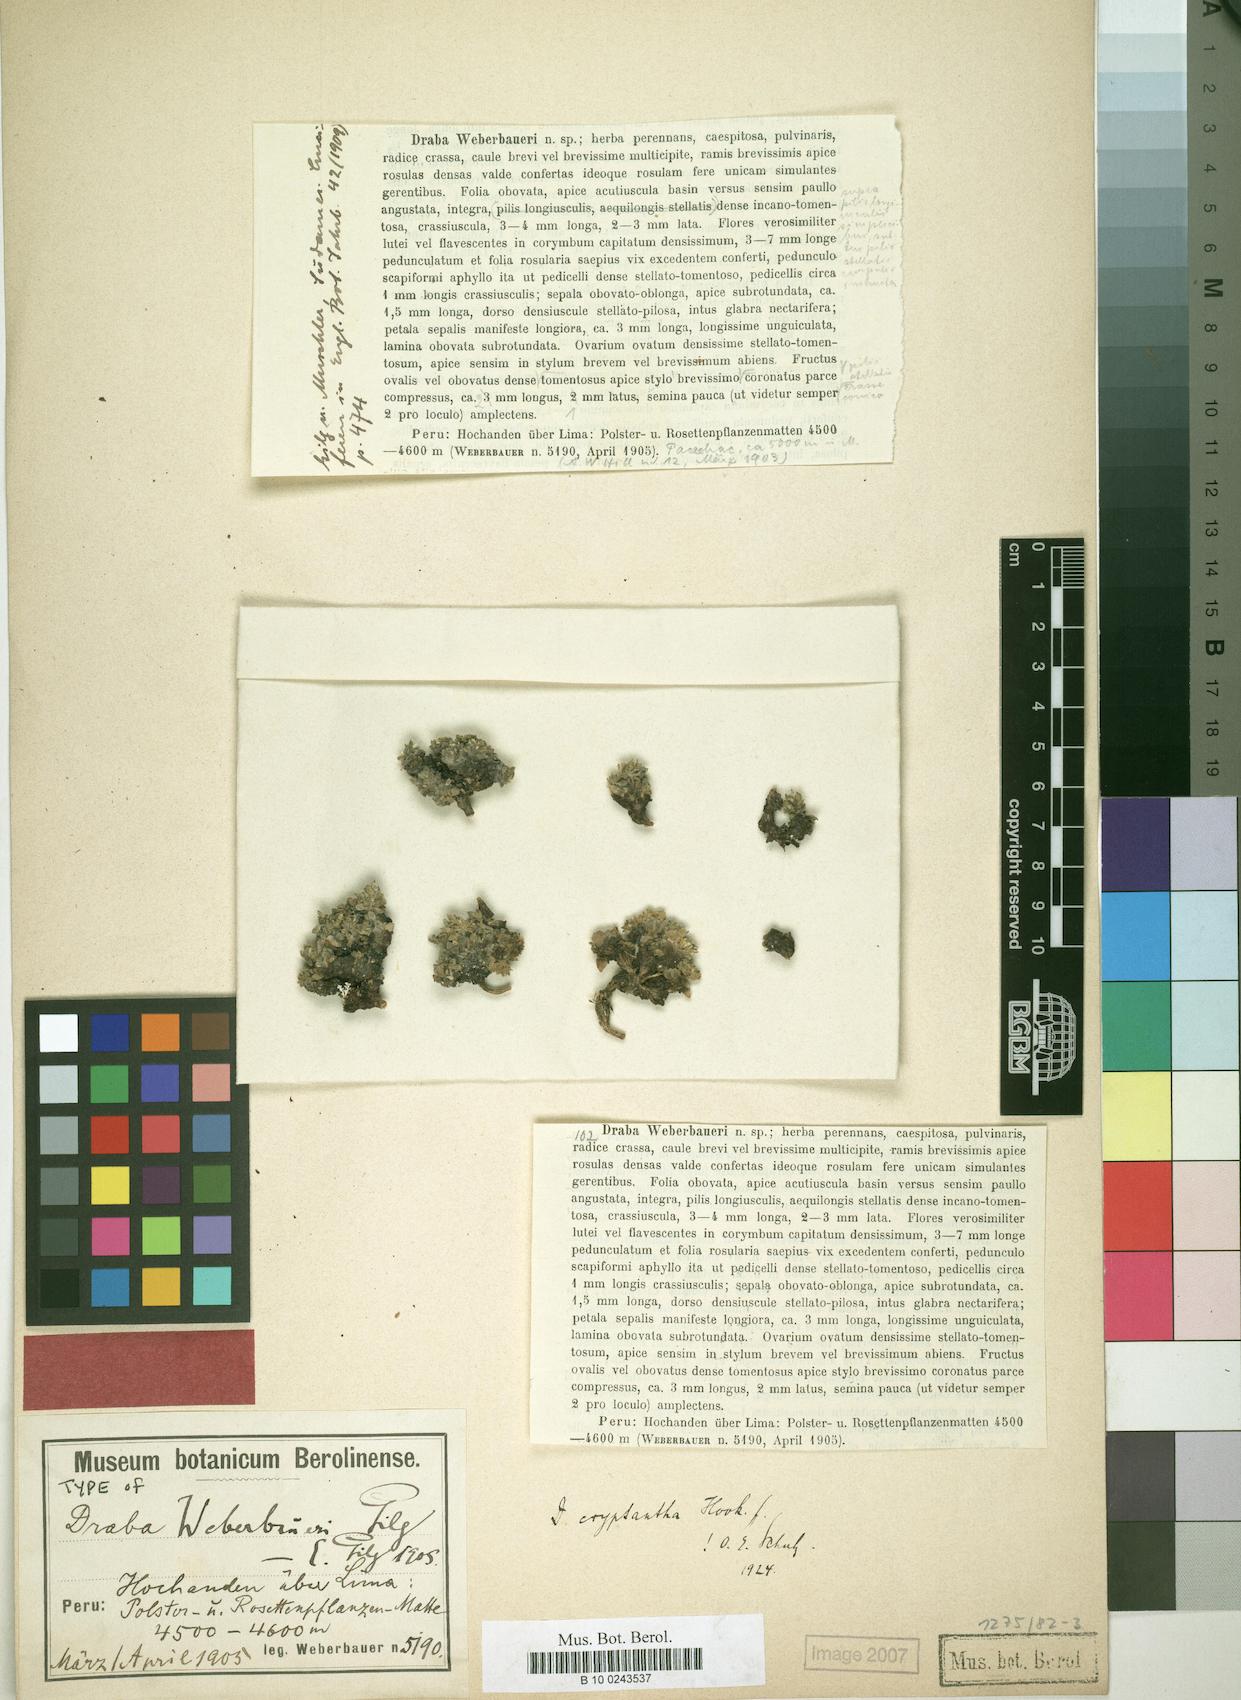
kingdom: Plantae
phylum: Tracheophyta
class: Magnoliopsida
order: Brassicales
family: Brassicaceae
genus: Draba
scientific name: Draba cryptantha
